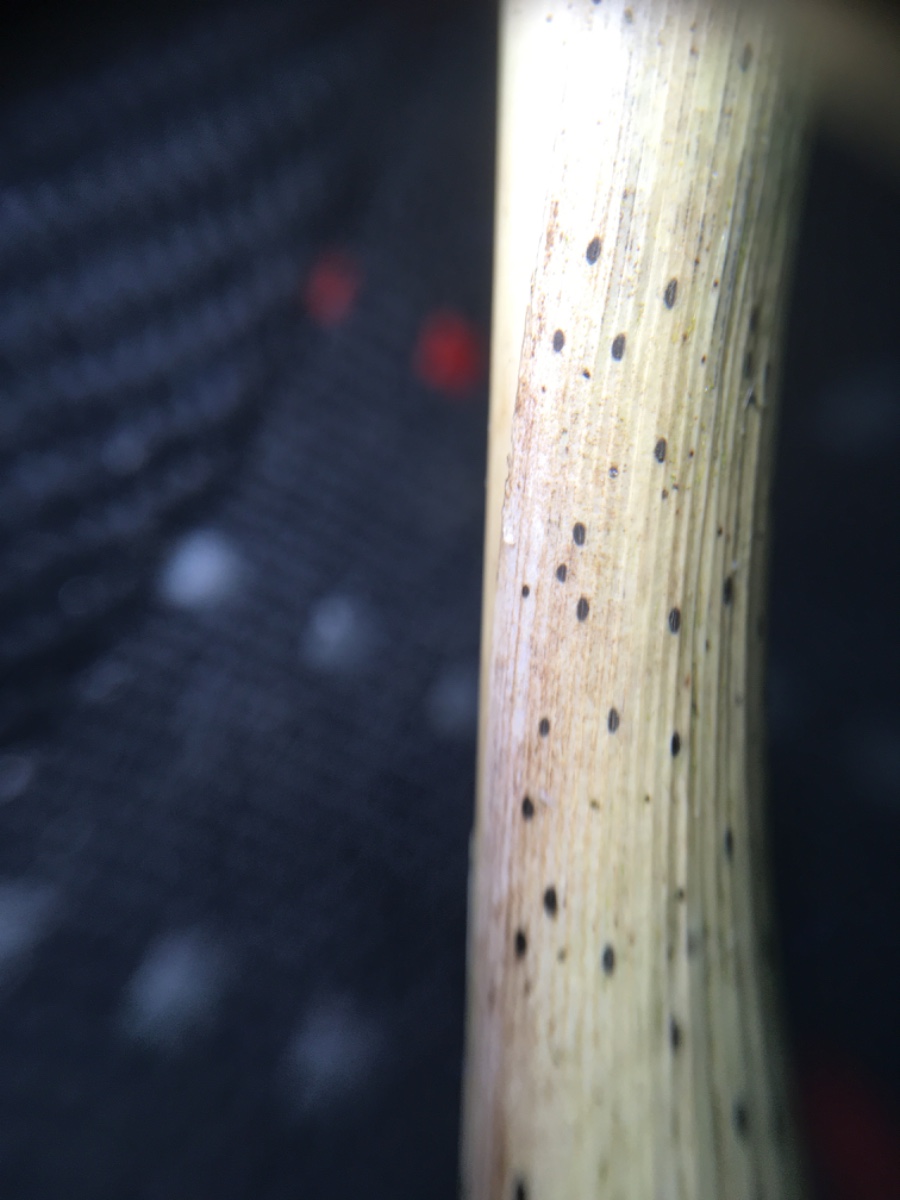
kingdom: Fungi
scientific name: Fungi
